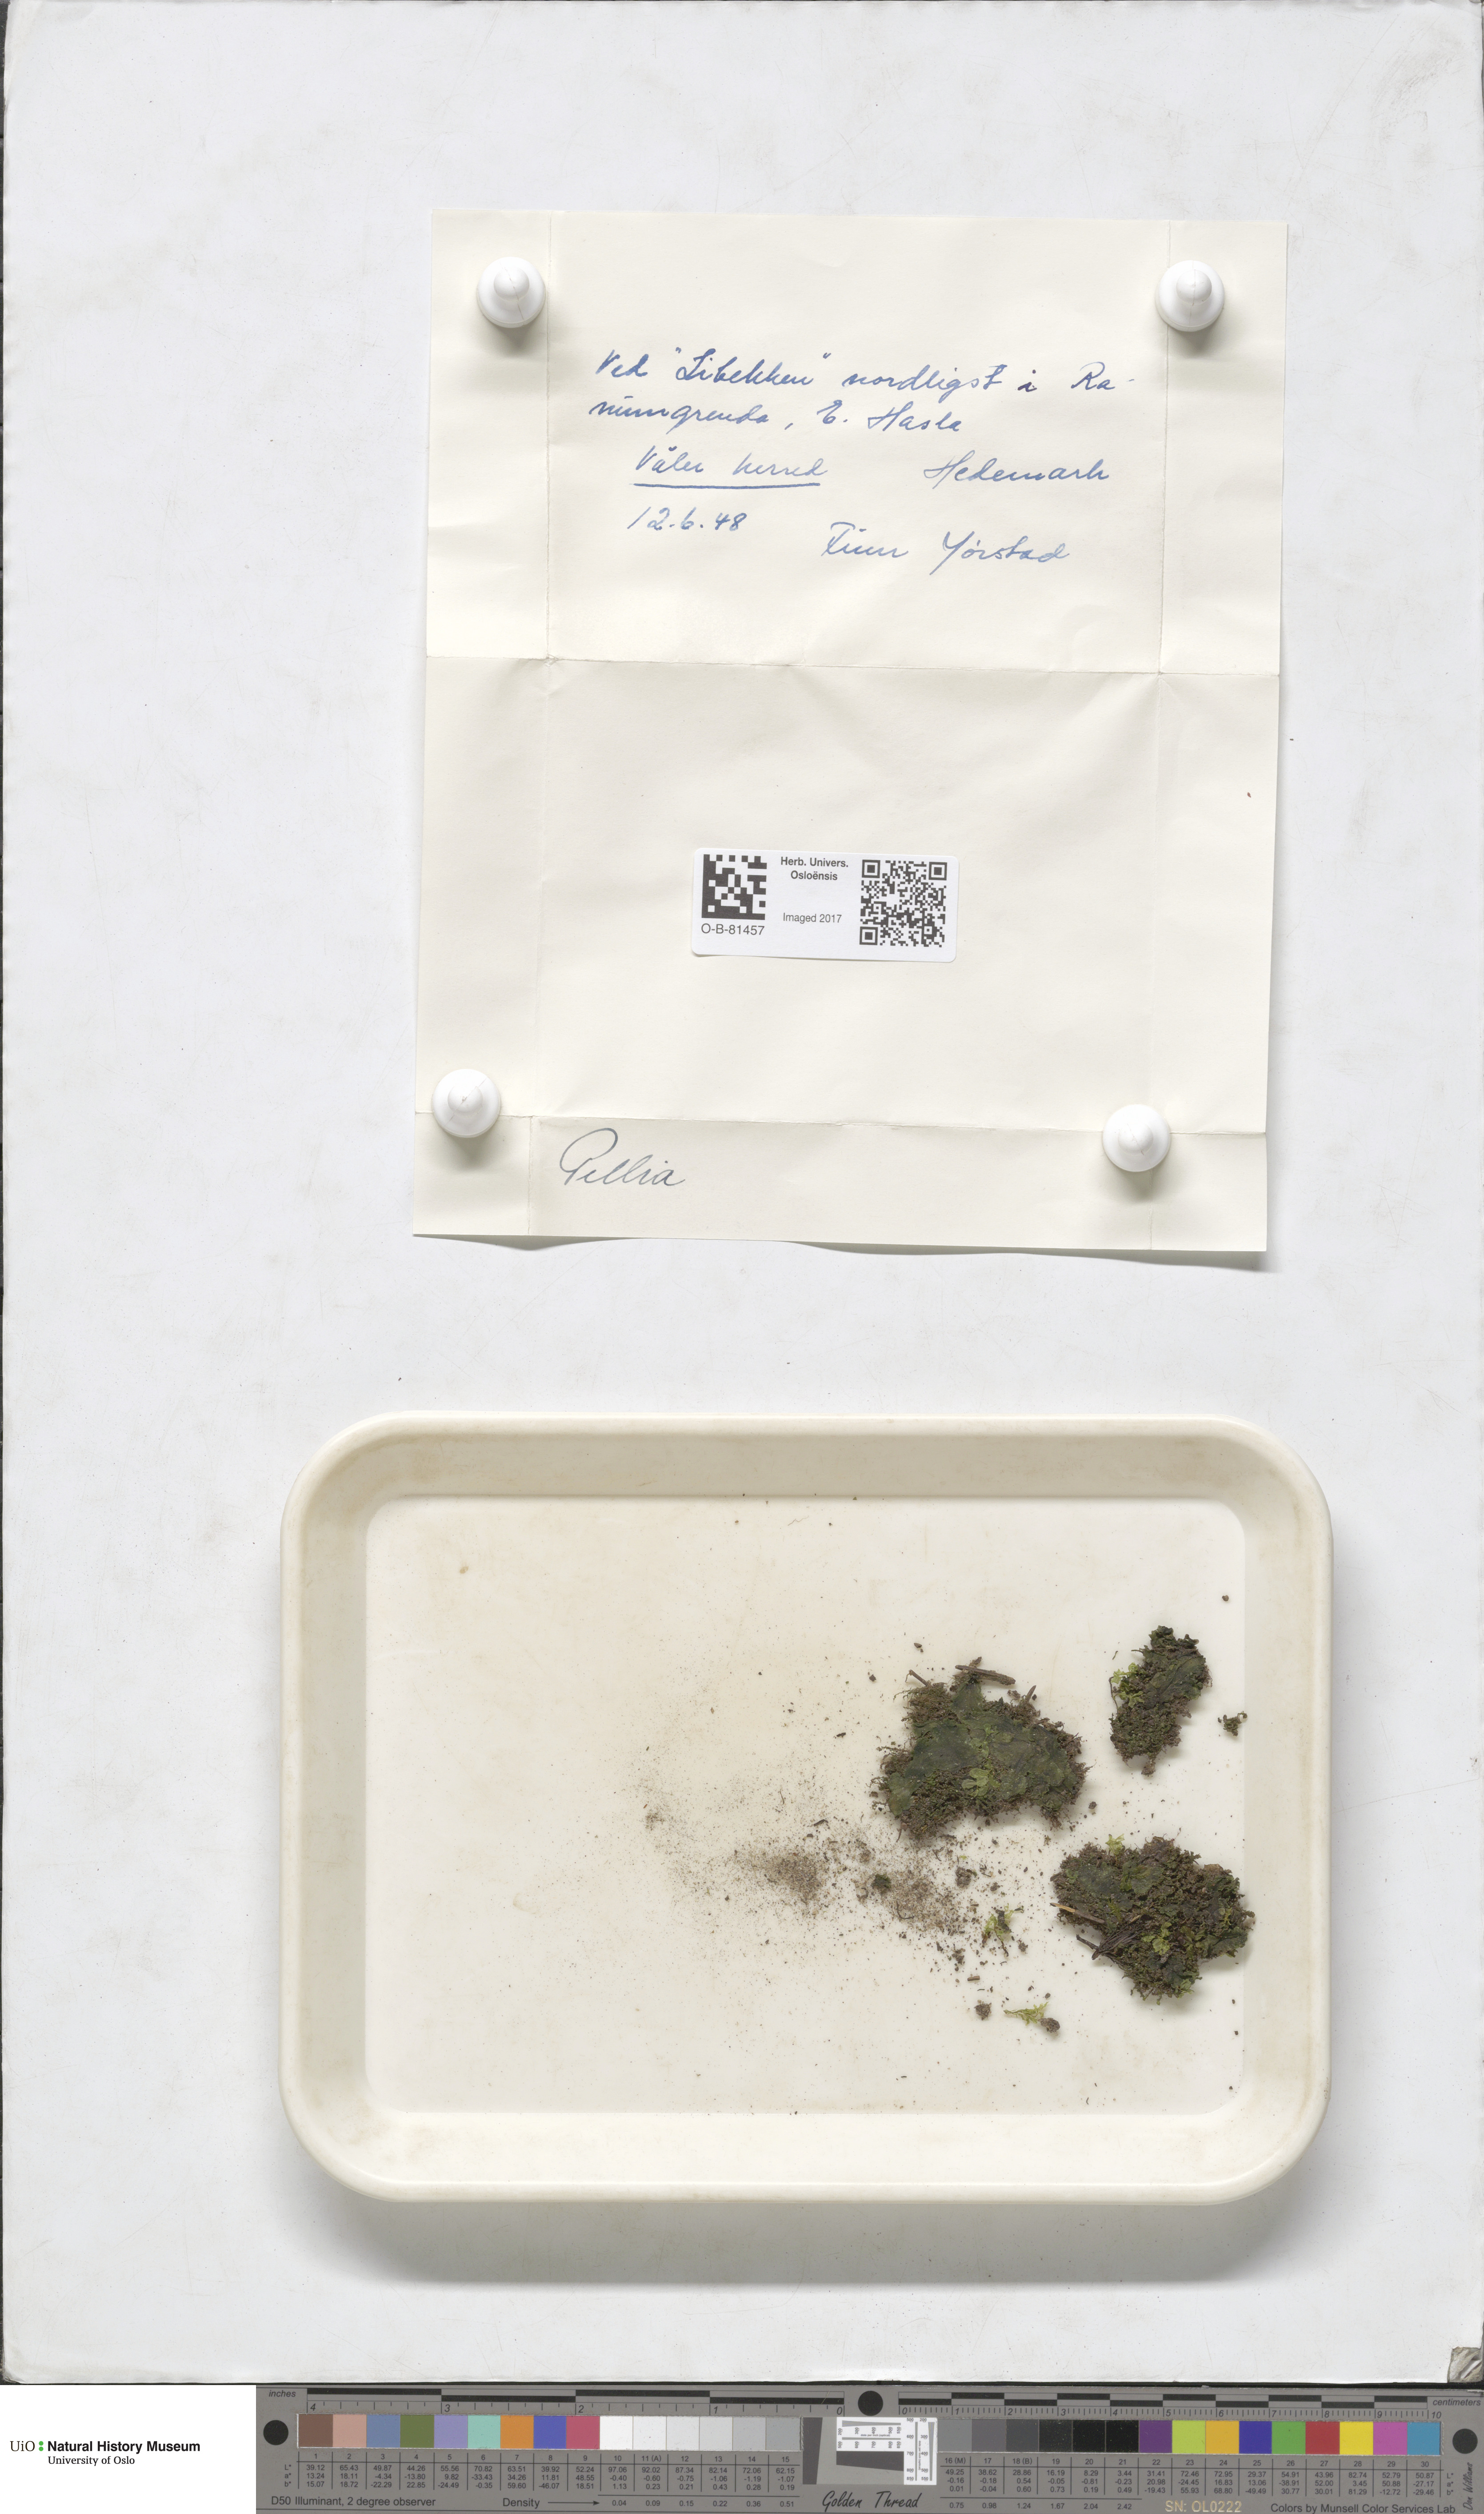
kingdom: Plantae
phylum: Marchantiophyta
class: Jungermanniopsida
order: Pelliales
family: Pelliaceae
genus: Pellia
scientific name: Pellia
